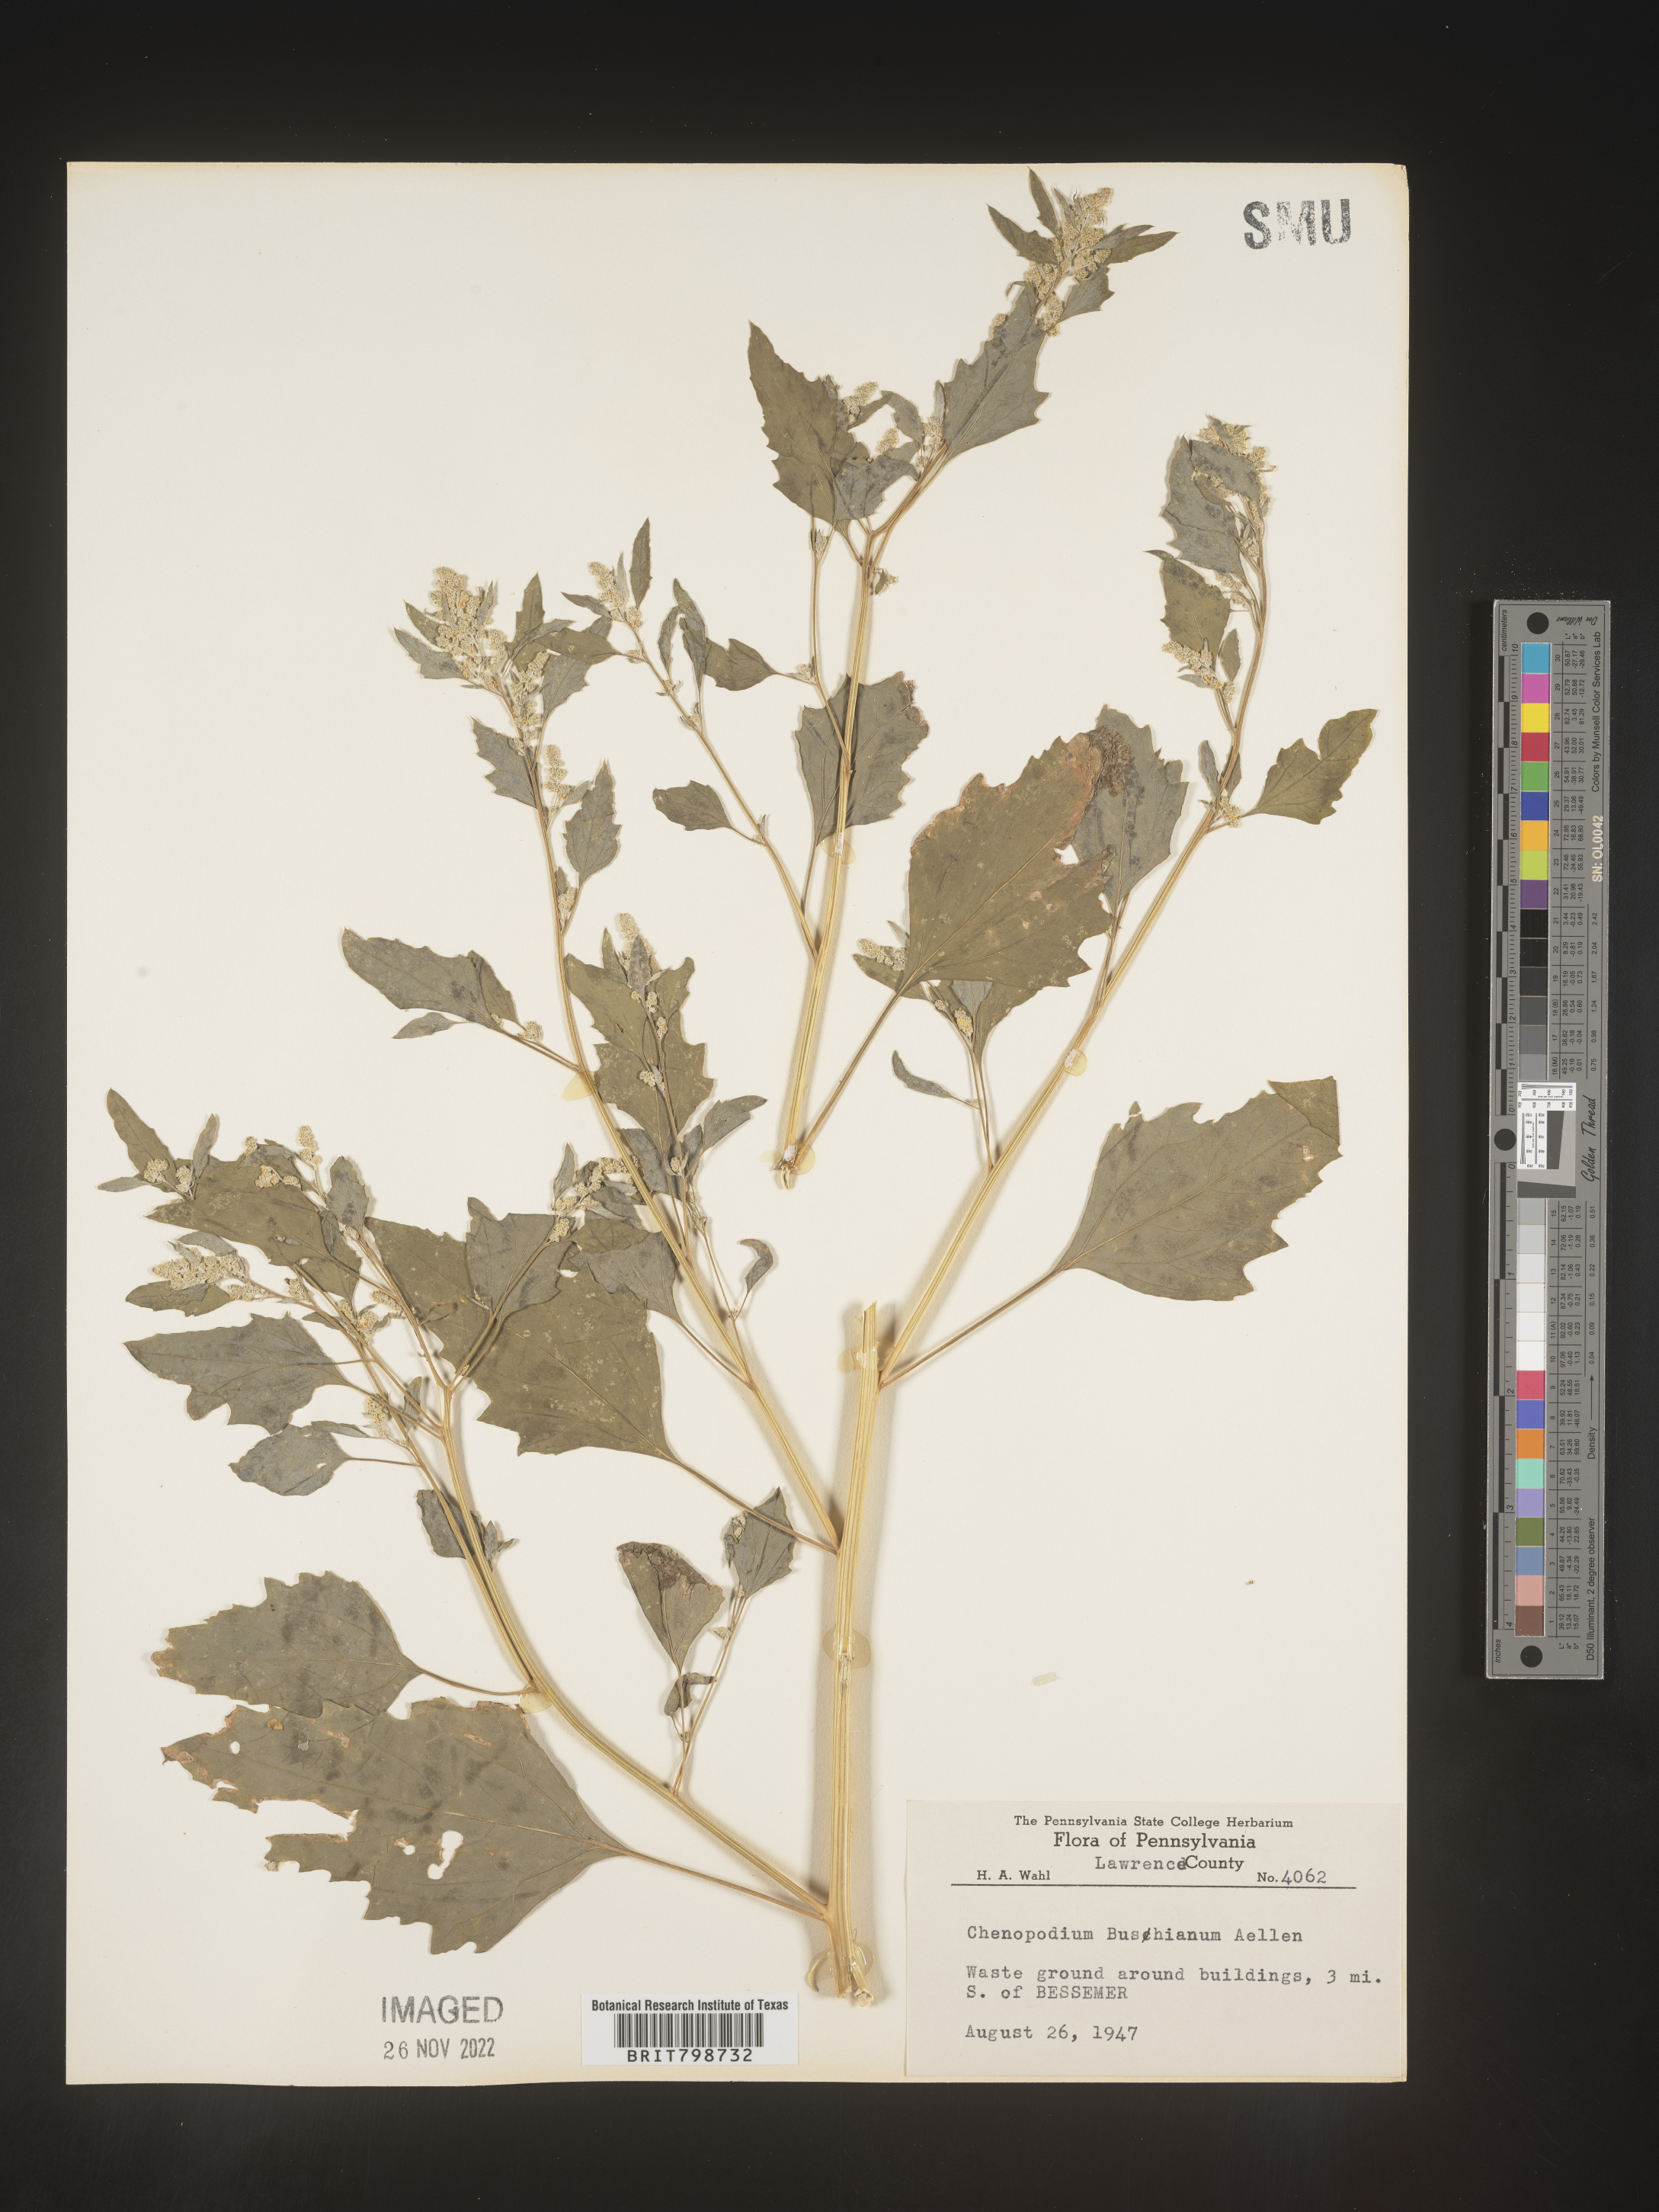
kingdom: Plantae
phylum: Tracheophyta
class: Magnoliopsida
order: Caryophyllales
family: Amaranthaceae
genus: Chenopodium
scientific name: Chenopodium berlandieri
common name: Pit-seed goosefoot
